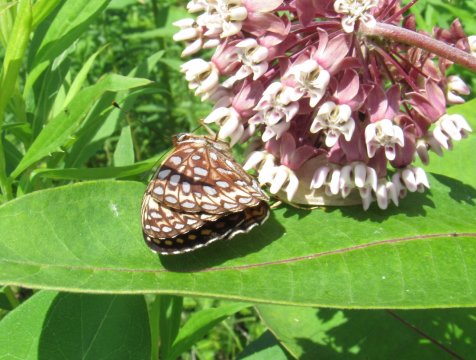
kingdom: Animalia
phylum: Arthropoda
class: Insecta
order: Lepidoptera
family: Nymphalidae
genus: Speyeria
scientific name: Speyeria atlantis
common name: Atlantis Fritillary
